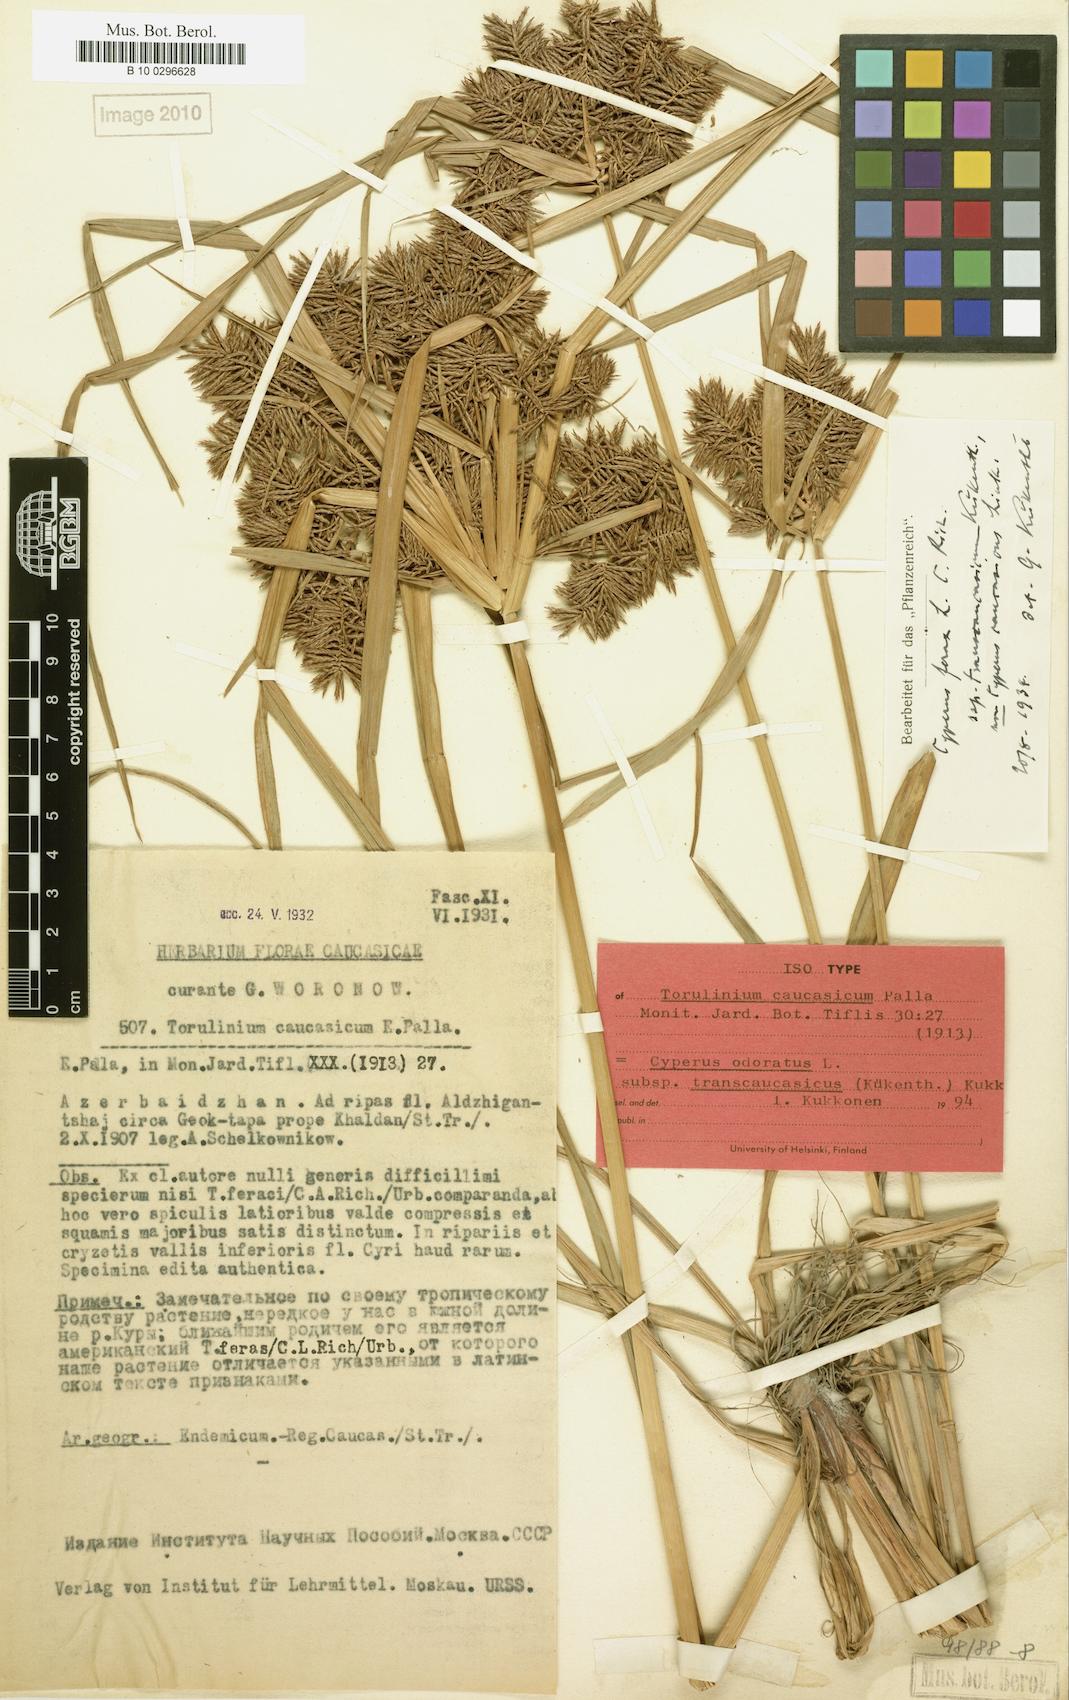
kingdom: Plantae
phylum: Tracheophyta
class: Liliopsida
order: Poales
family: Cyperaceae
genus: Cyperus
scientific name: Cyperus odoratus
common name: Fragrant flatsedge
